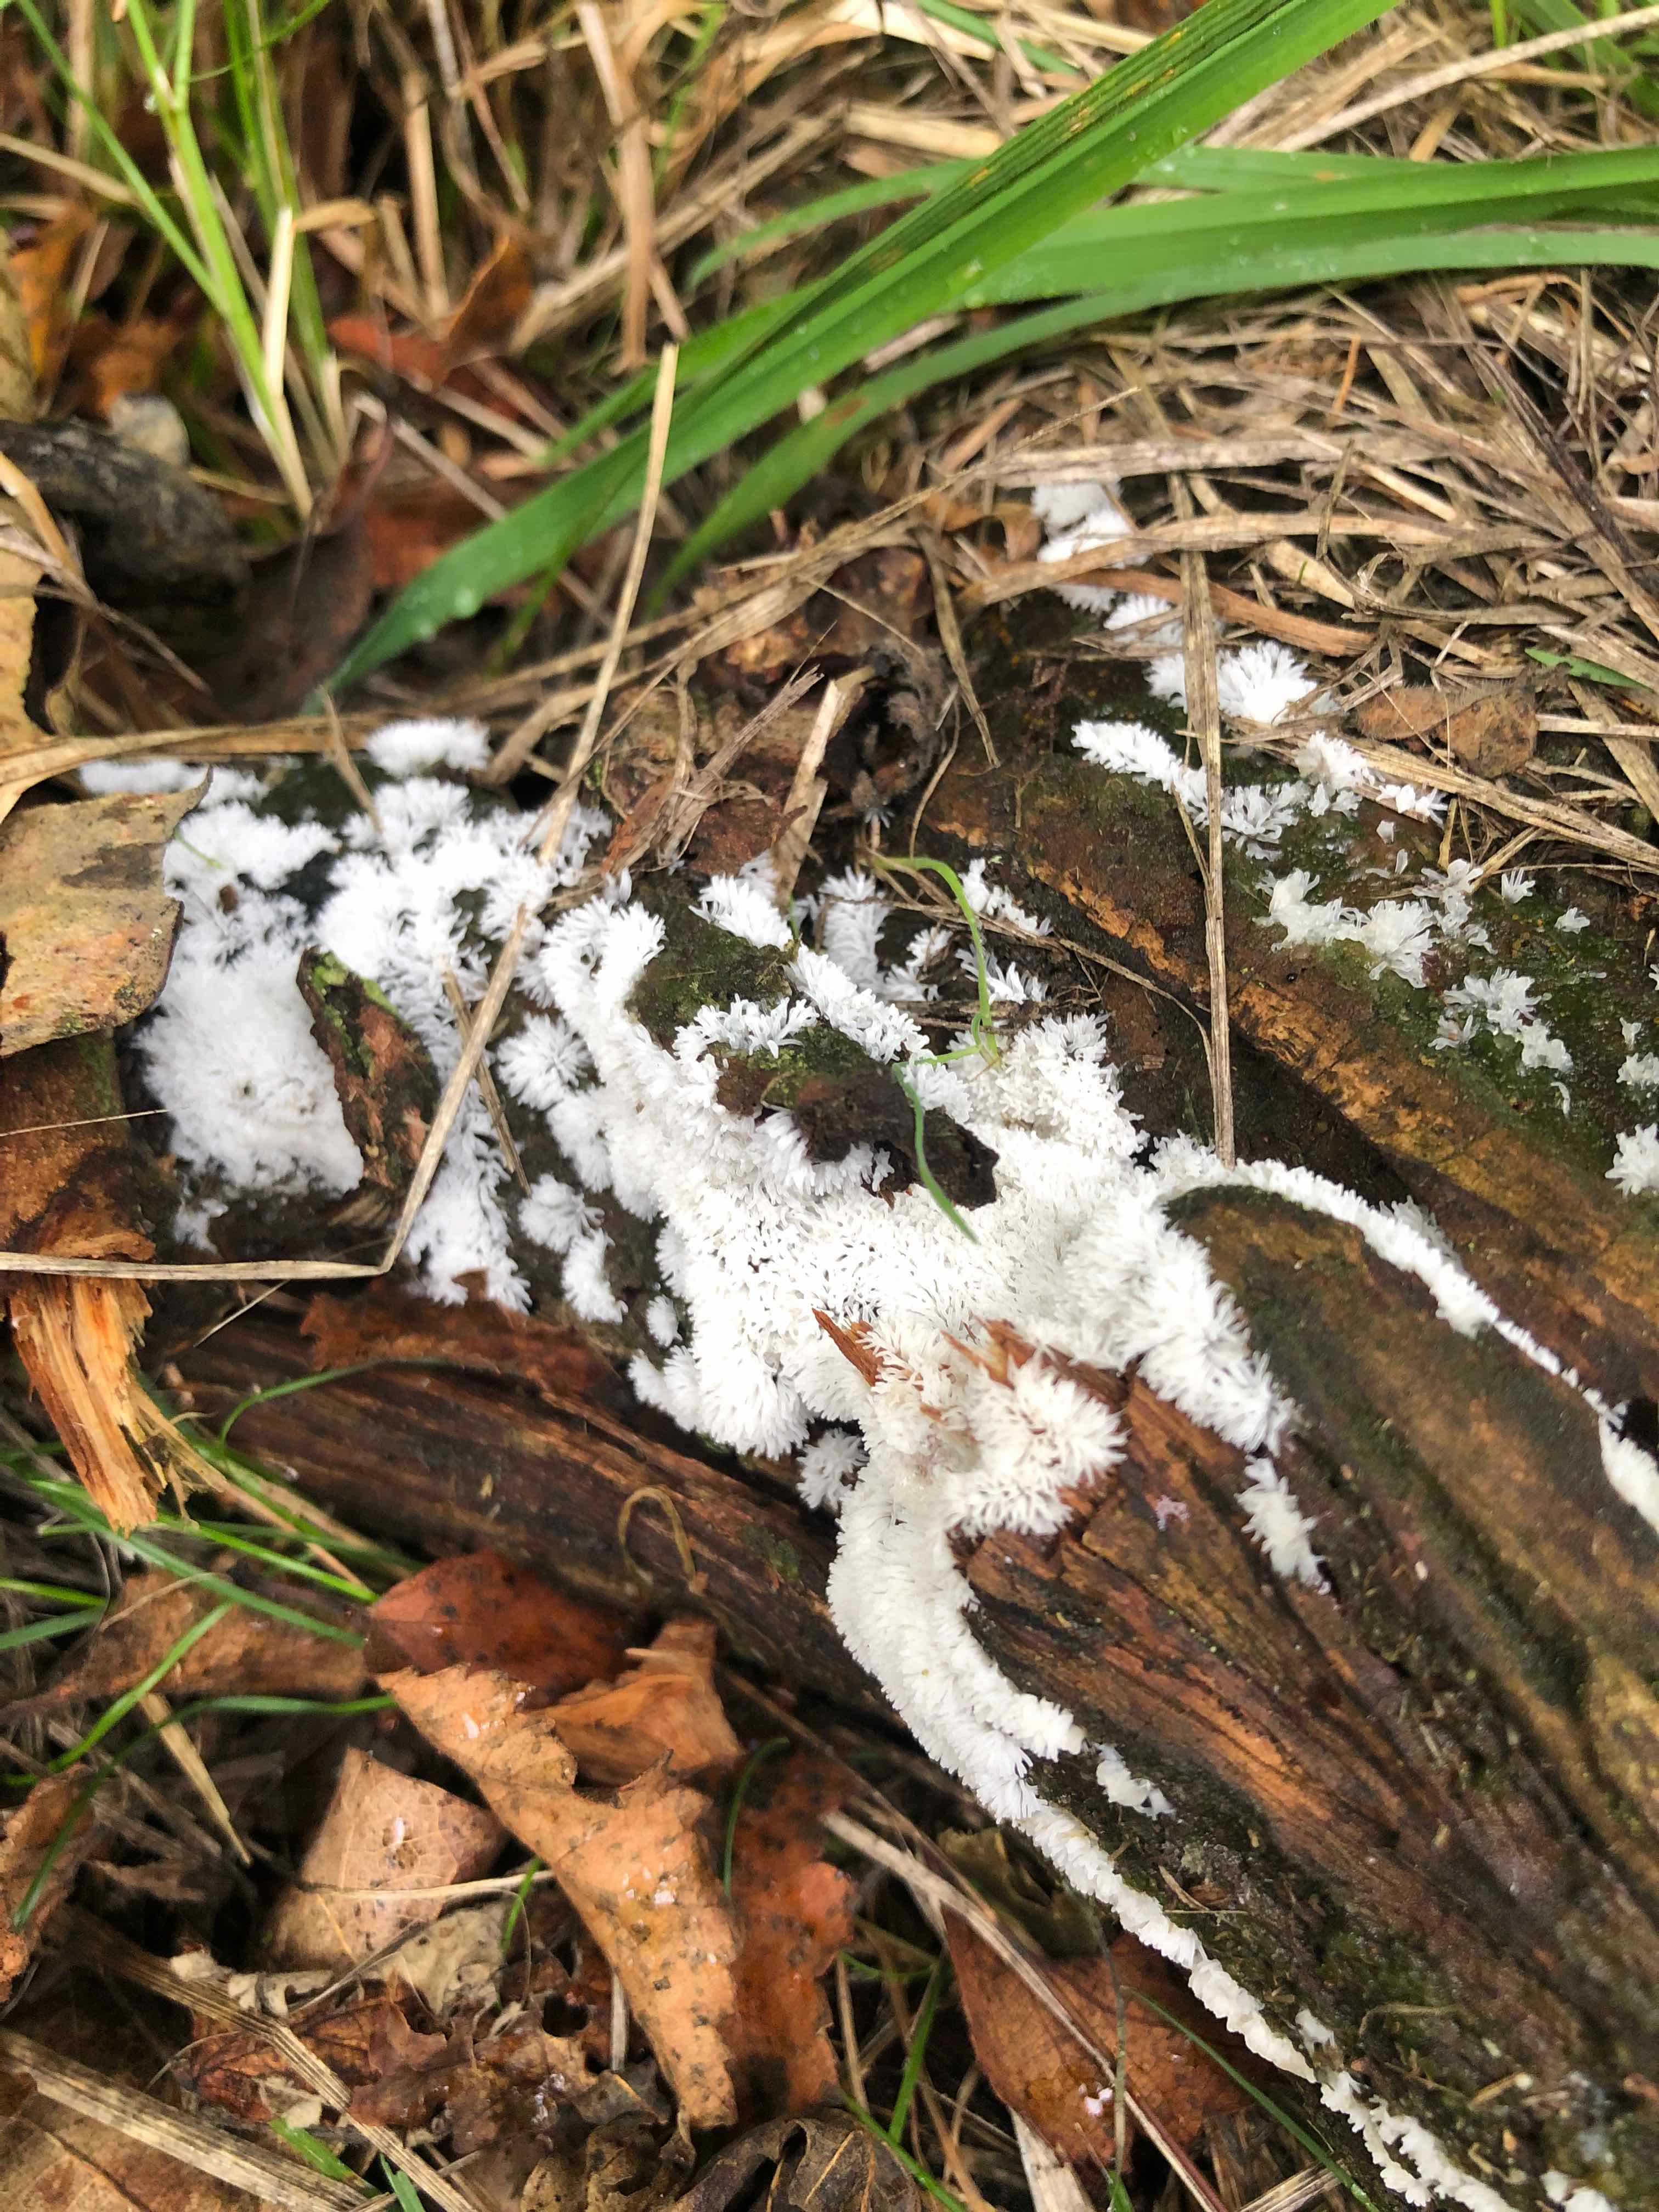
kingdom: Protozoa
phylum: Mycetozoa
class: Protosteliomycetes
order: Ceratiomyxales
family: Ceratiomyxaceae
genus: Ceratiomyxa
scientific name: Ceratiomyxa fruticulosa
